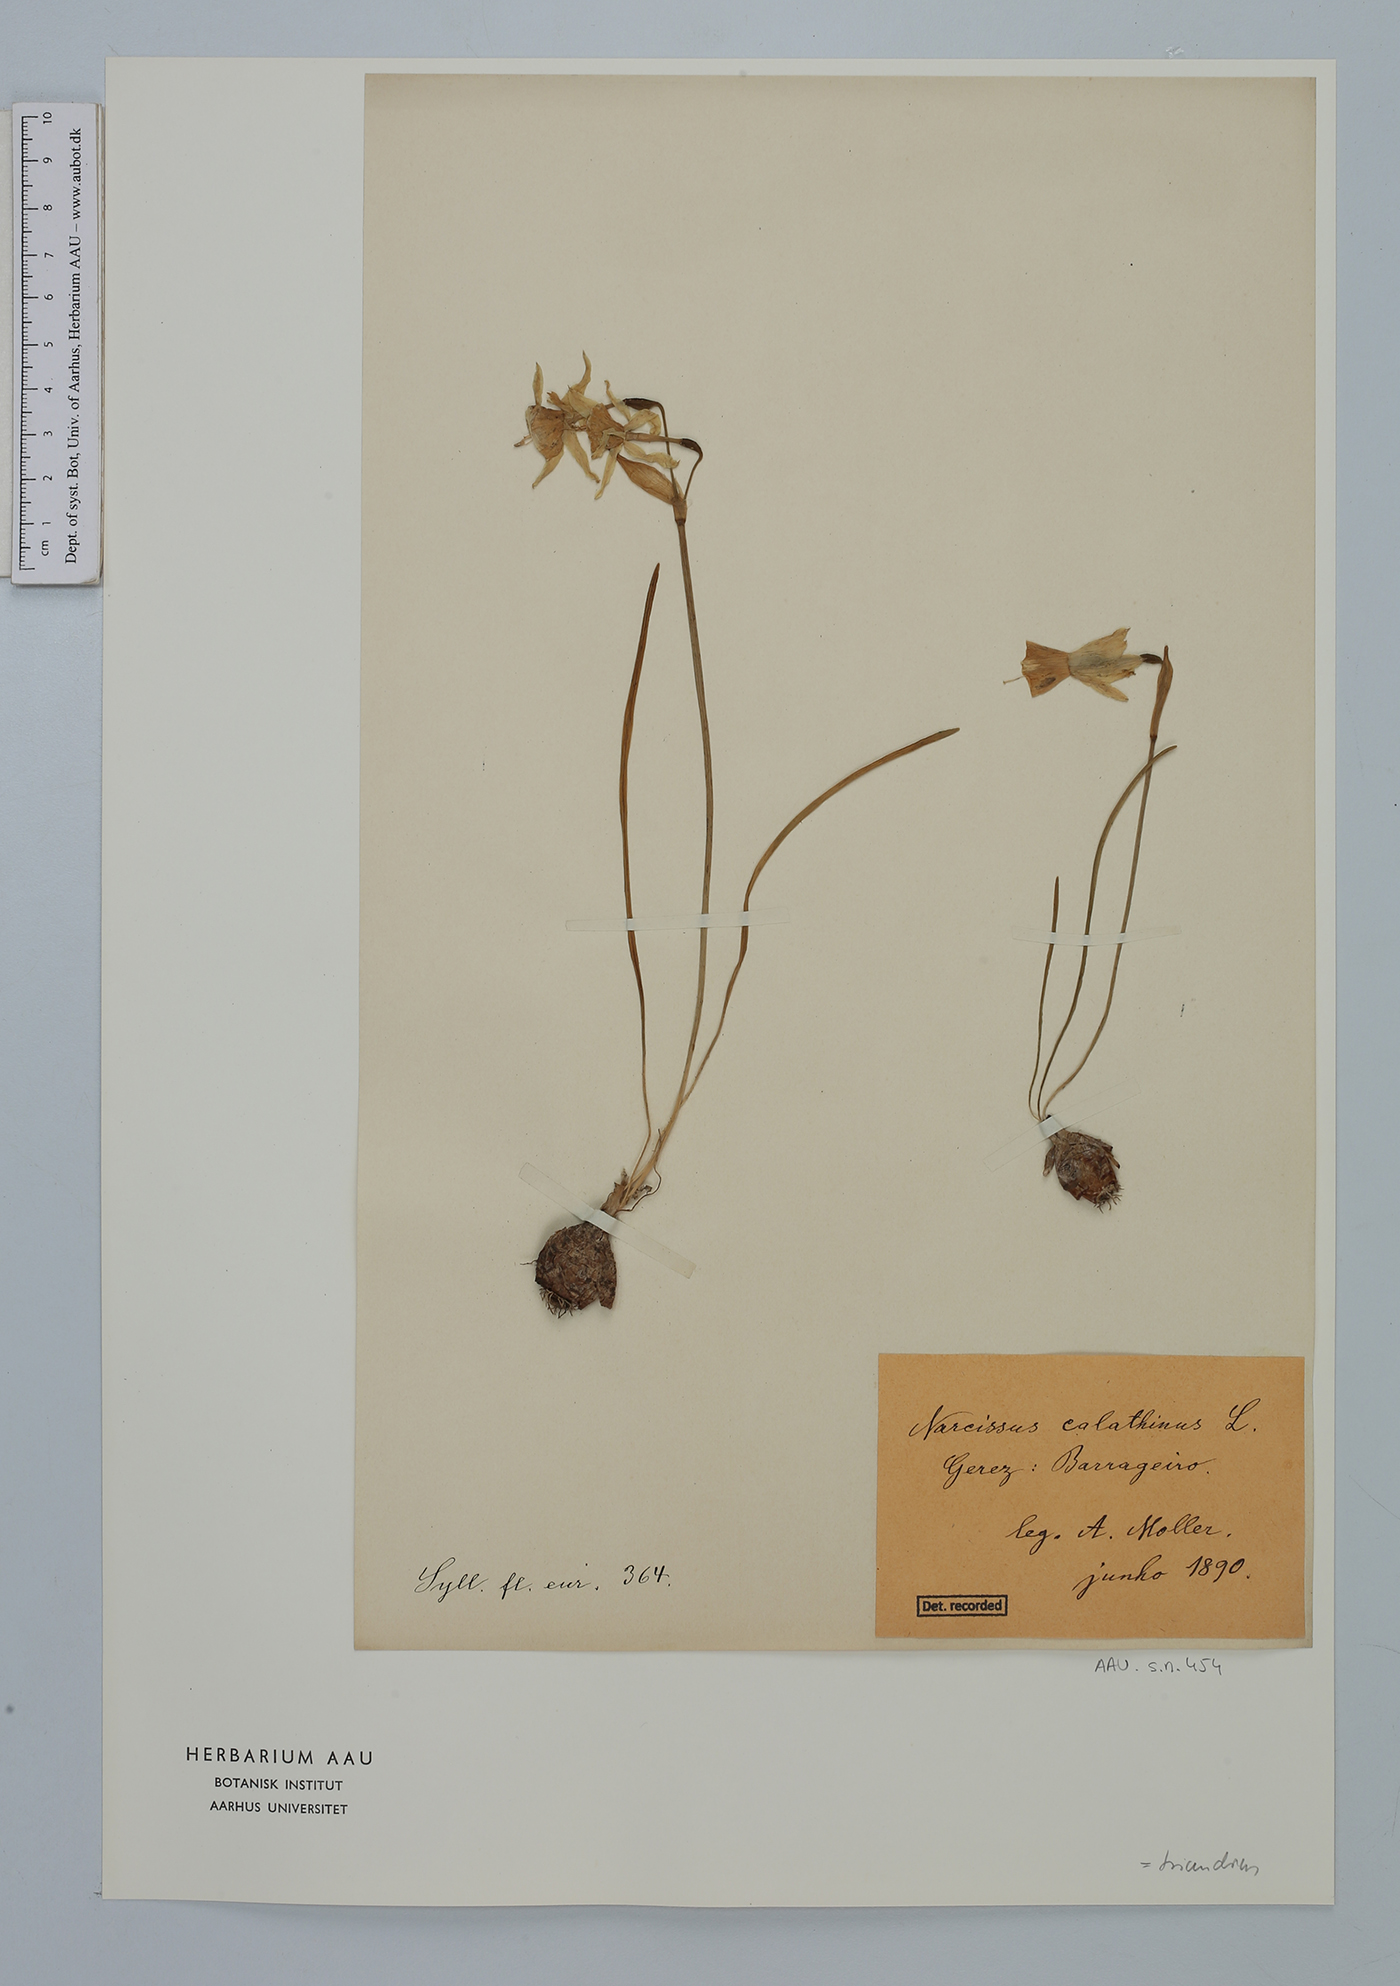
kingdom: Plantae
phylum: Tracheophyta
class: Liliopsida
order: Asparagales
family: Amaryllidaceae
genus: Narcissus
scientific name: Narcissus triandrus
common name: Angel's-tears
